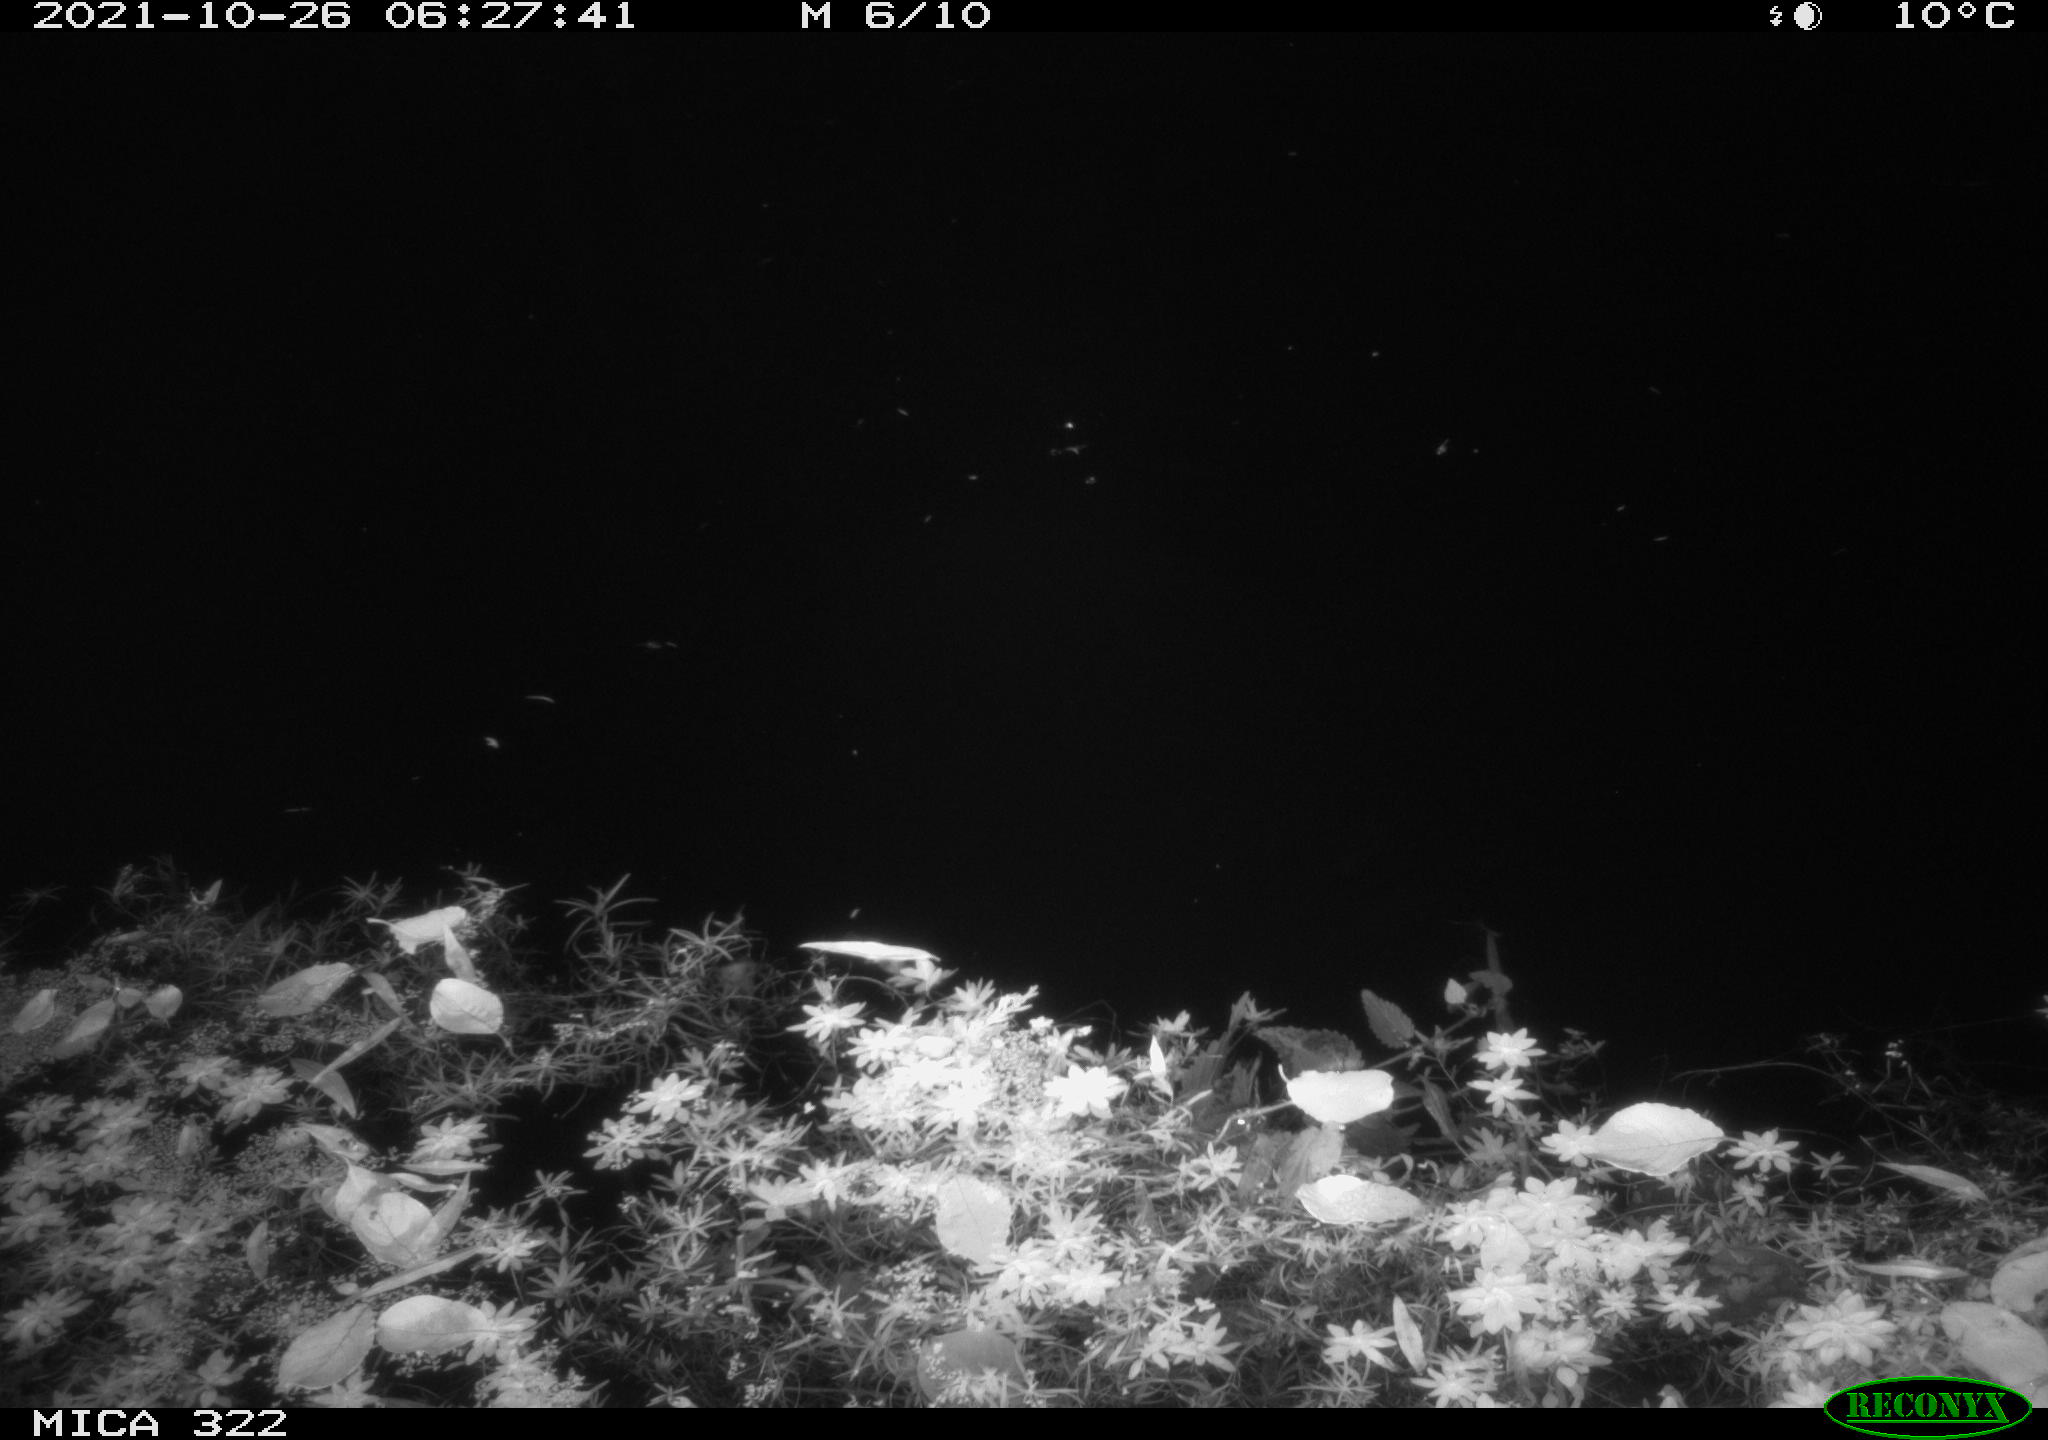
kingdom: Animalia
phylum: Chordata
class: Mammalia
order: Rodentia
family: Muridae
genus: Rattus
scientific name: Rattus norvegicus
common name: Brown rat
